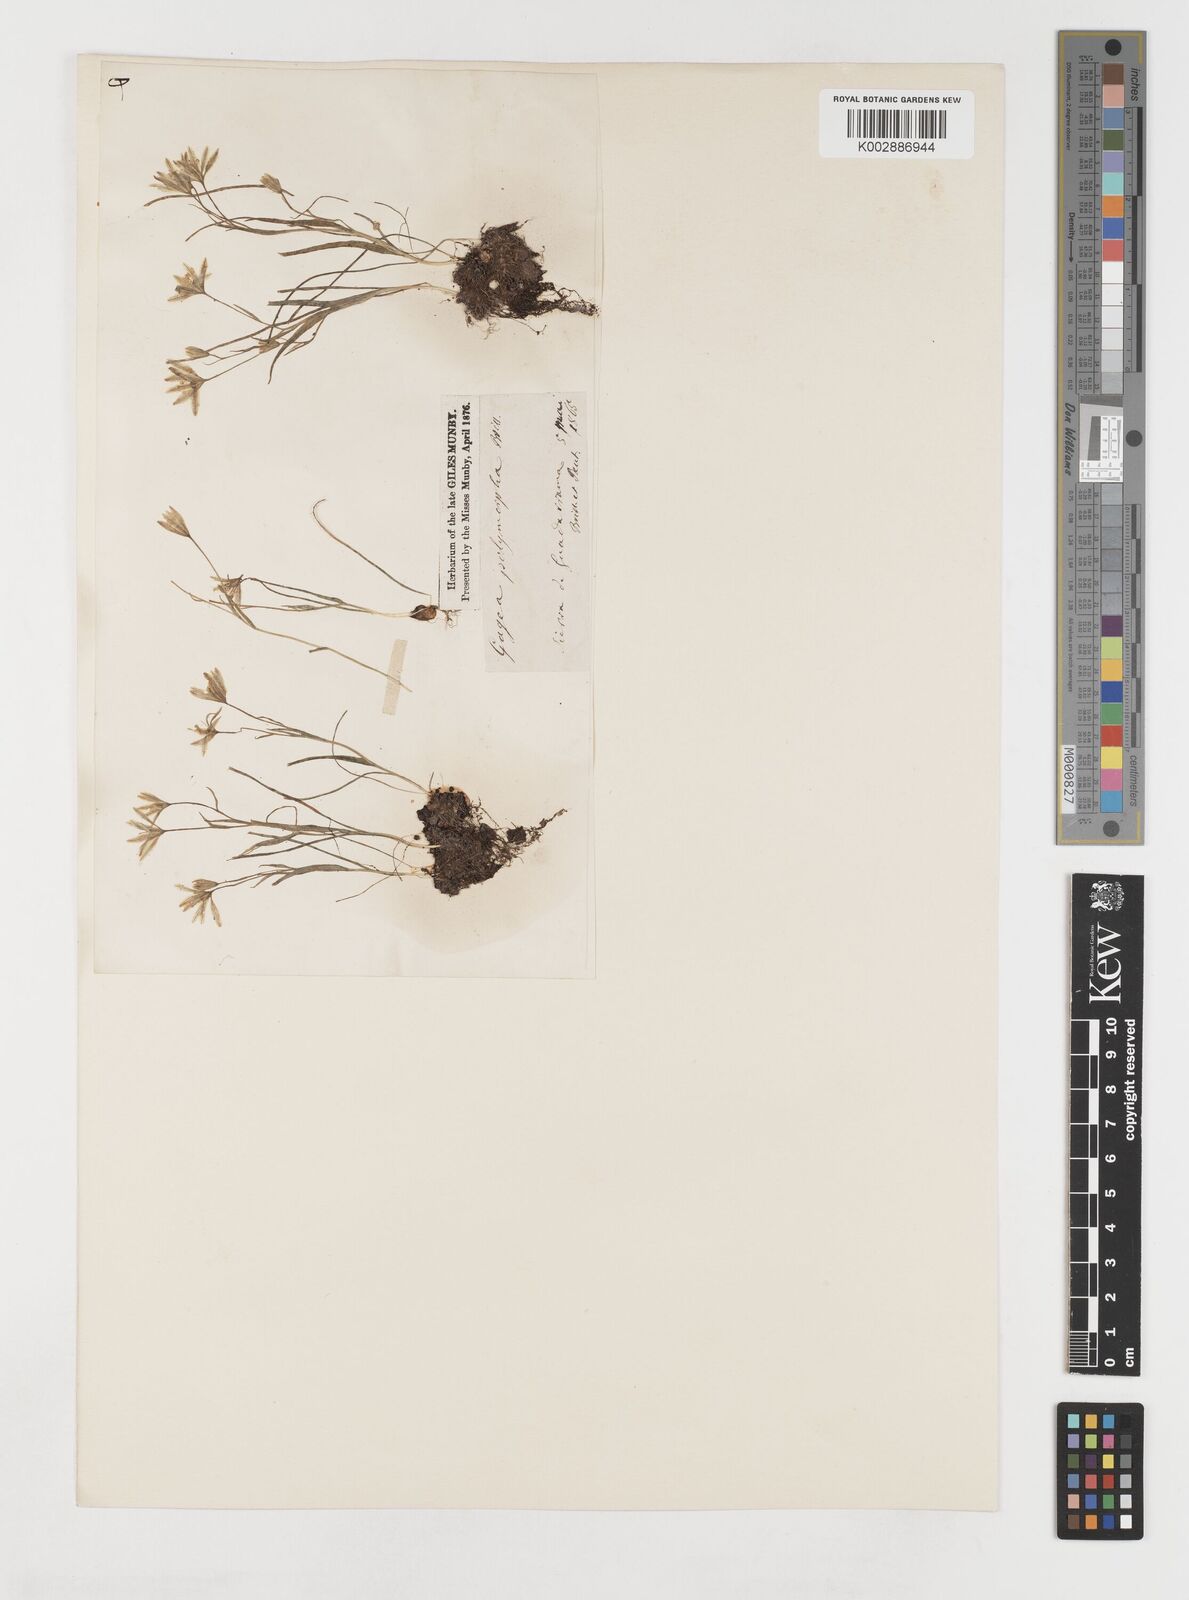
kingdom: Plantae
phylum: Tracheophyta
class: Liliopsida
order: Liliales
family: Liliaceae
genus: Gagea
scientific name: Gagea foliosa
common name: Leafy gagea
